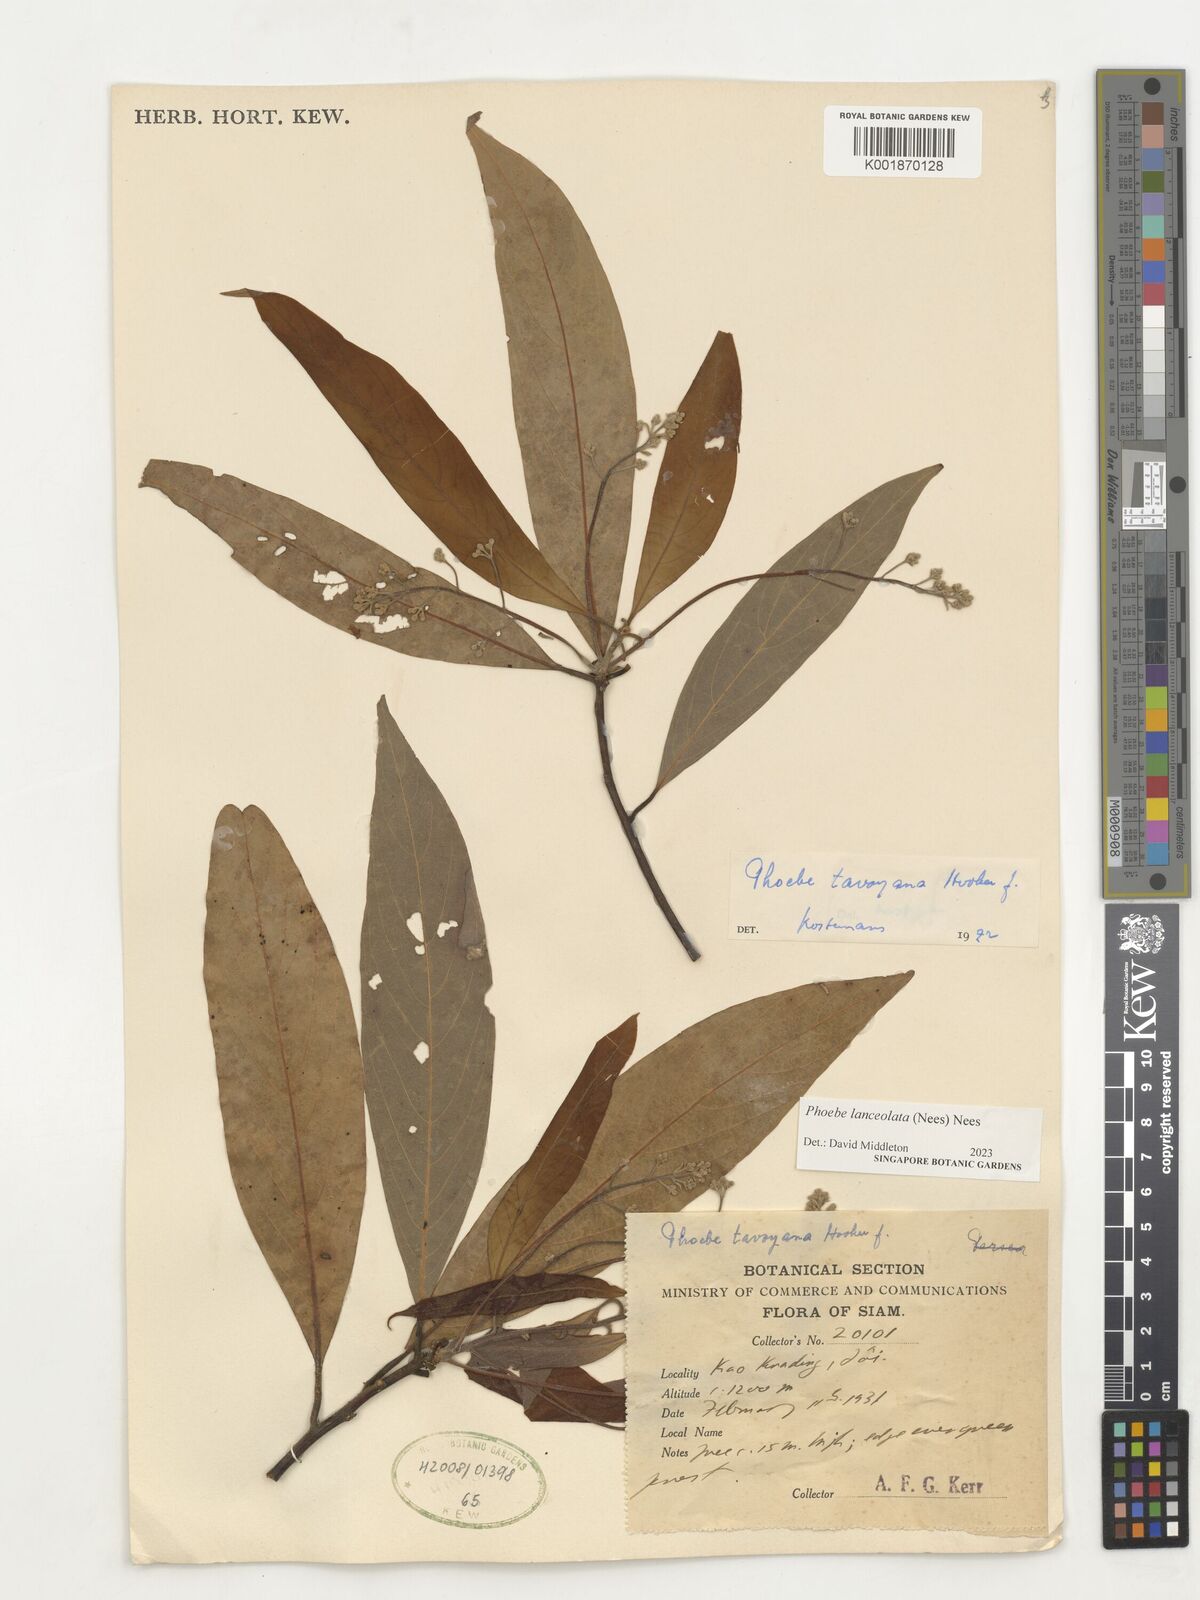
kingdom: Plantae
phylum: Tracheophyta
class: Magnoliopsida
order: Laurales
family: Lauraceae
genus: Phoebe
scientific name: Phoebe lanceolata
